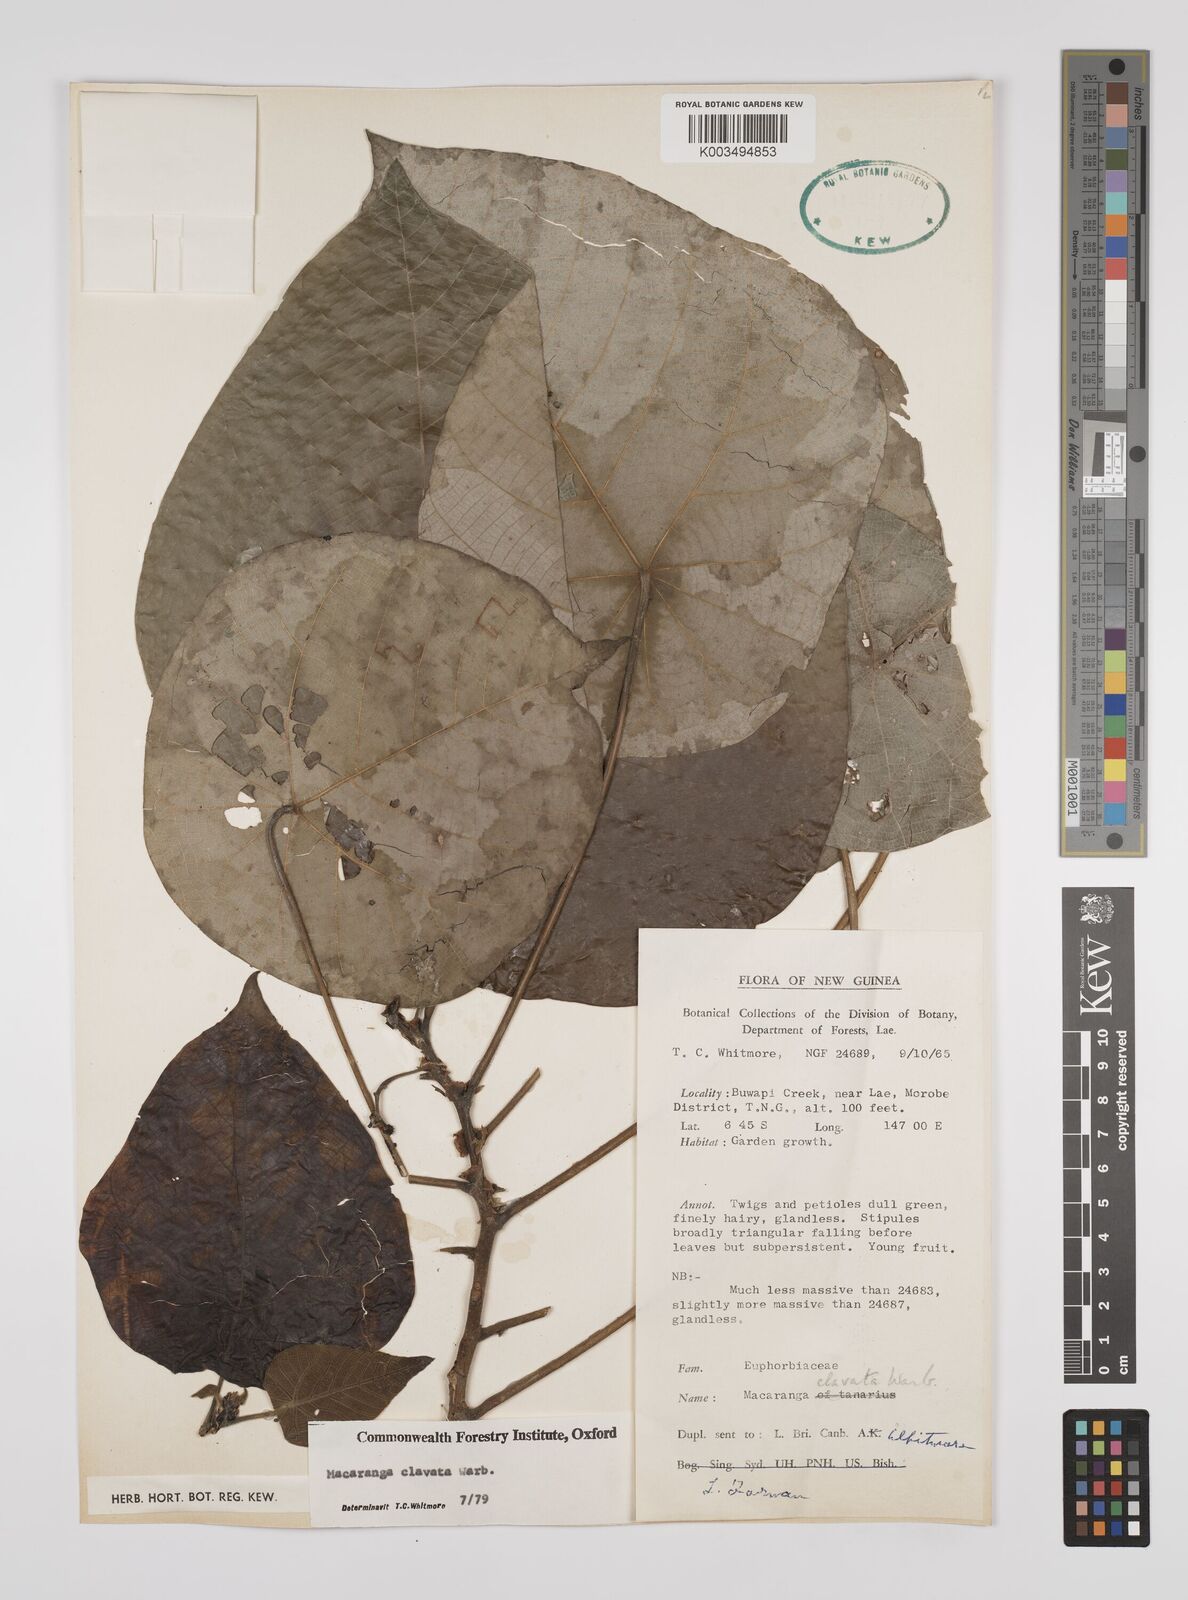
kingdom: Plantae
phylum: Tracheophyta
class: Magnoliopsida
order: Malpighiales
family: Euphorbiaceae
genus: Macaranga
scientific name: Macaranga clavata
